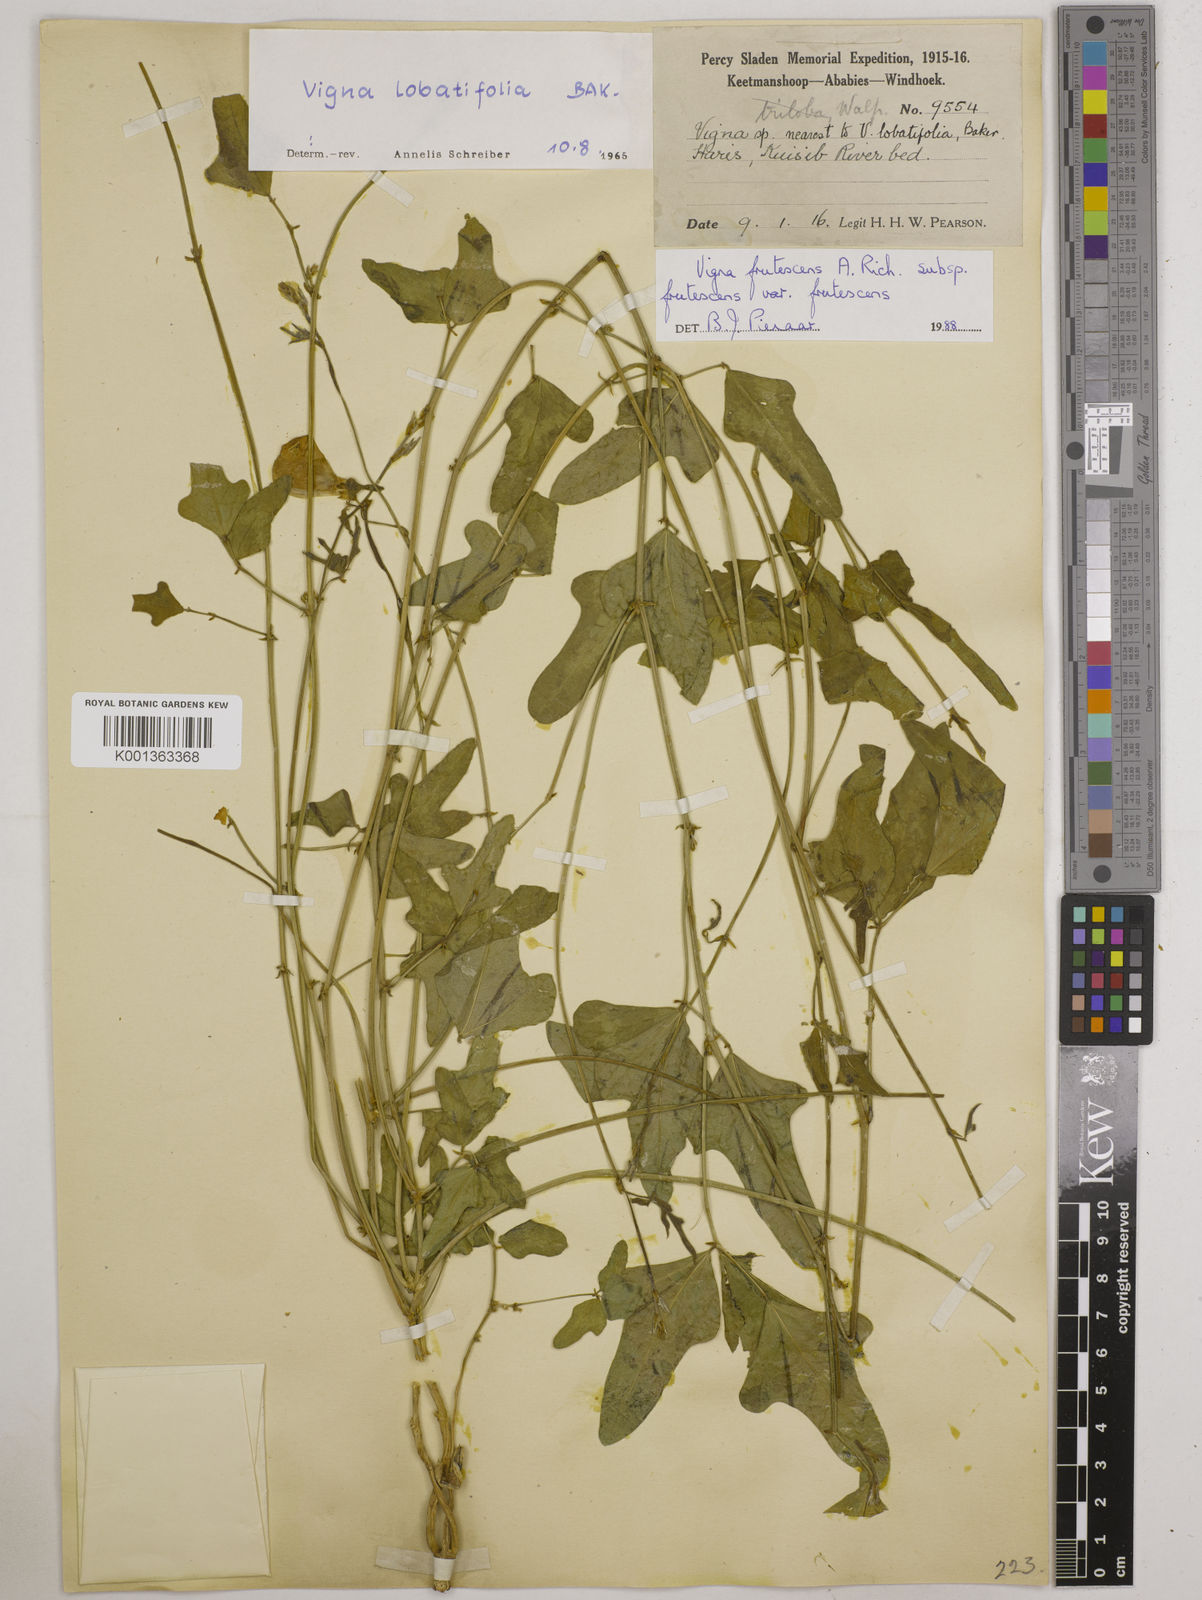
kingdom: Plantae
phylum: Tracheophyta
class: Magnoliopsida
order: Fabales
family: Fabaceae
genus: Vigna
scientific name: Vigna frutescens
